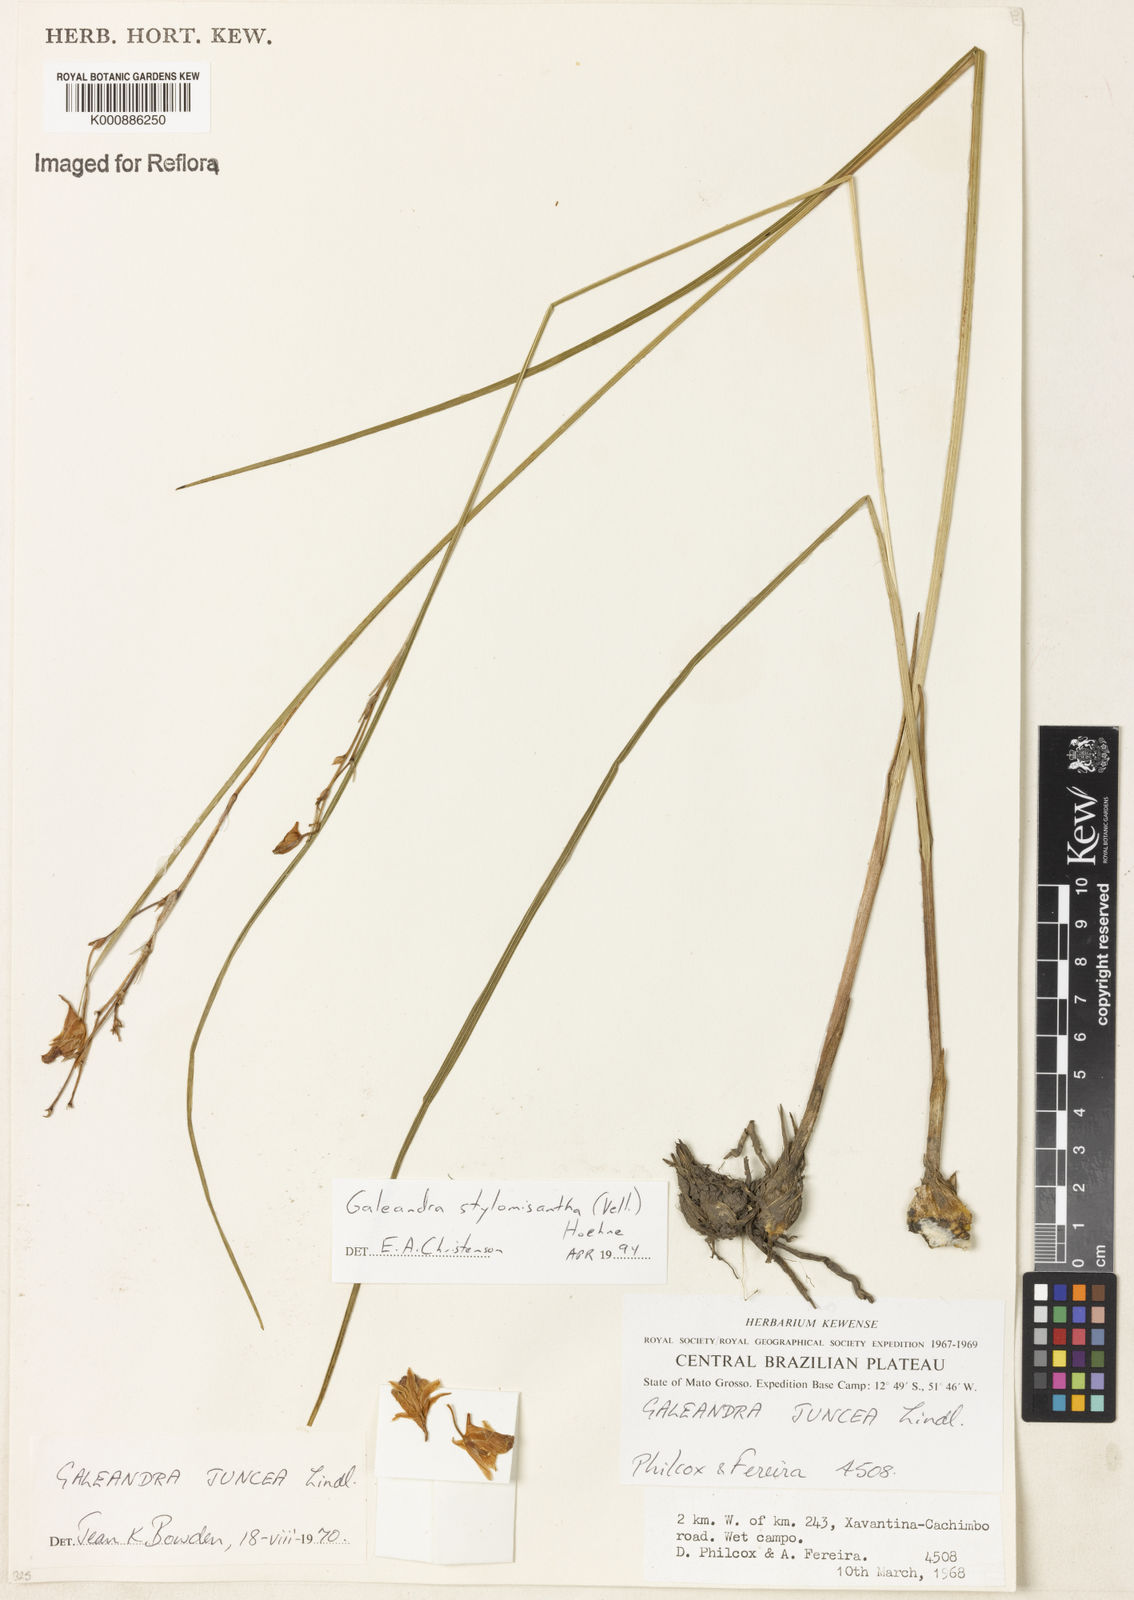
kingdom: Plantae
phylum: Tracheophyta
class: Liliopsida
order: Asparagales
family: Orchidaceae
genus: Galeandra
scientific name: Galeandra styllomisantha
